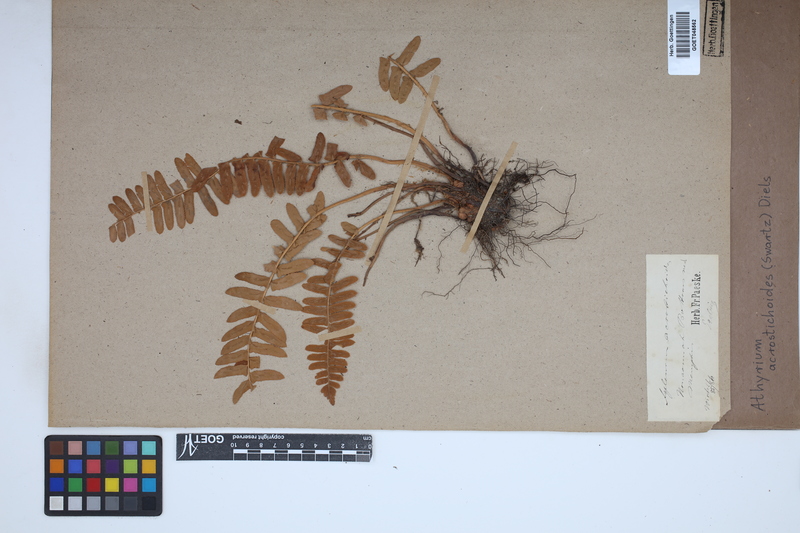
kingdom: Plantae
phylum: Tracheophyta
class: Polypodiopsida
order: Polypodiales
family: Athyriaceae
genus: Deparia
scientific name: Deparia acrostichoides
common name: Silver false spleenwort
